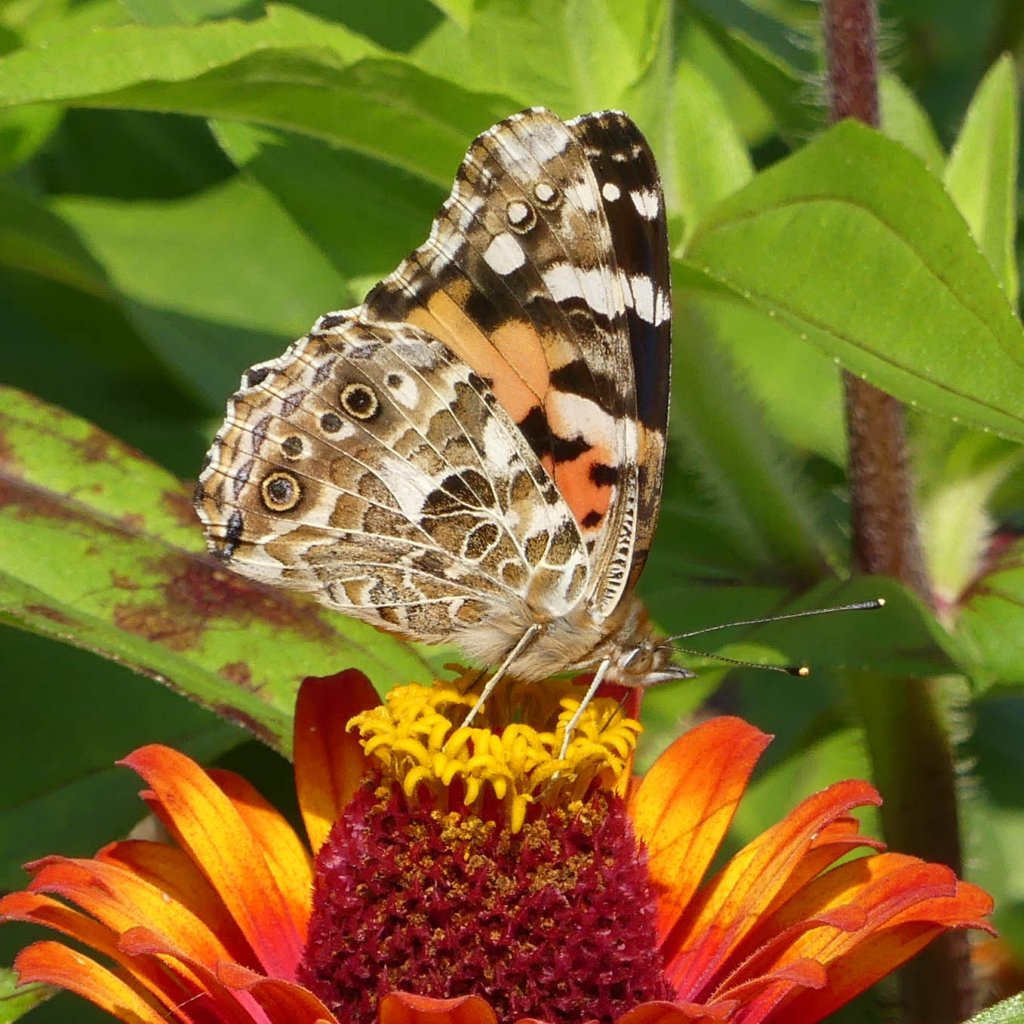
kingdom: Animalia
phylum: Arthropoda
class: Insecta
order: Lepidoptera
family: Nymphalidae
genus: Vanessa
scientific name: Vanessa cardui
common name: Painted Lady
